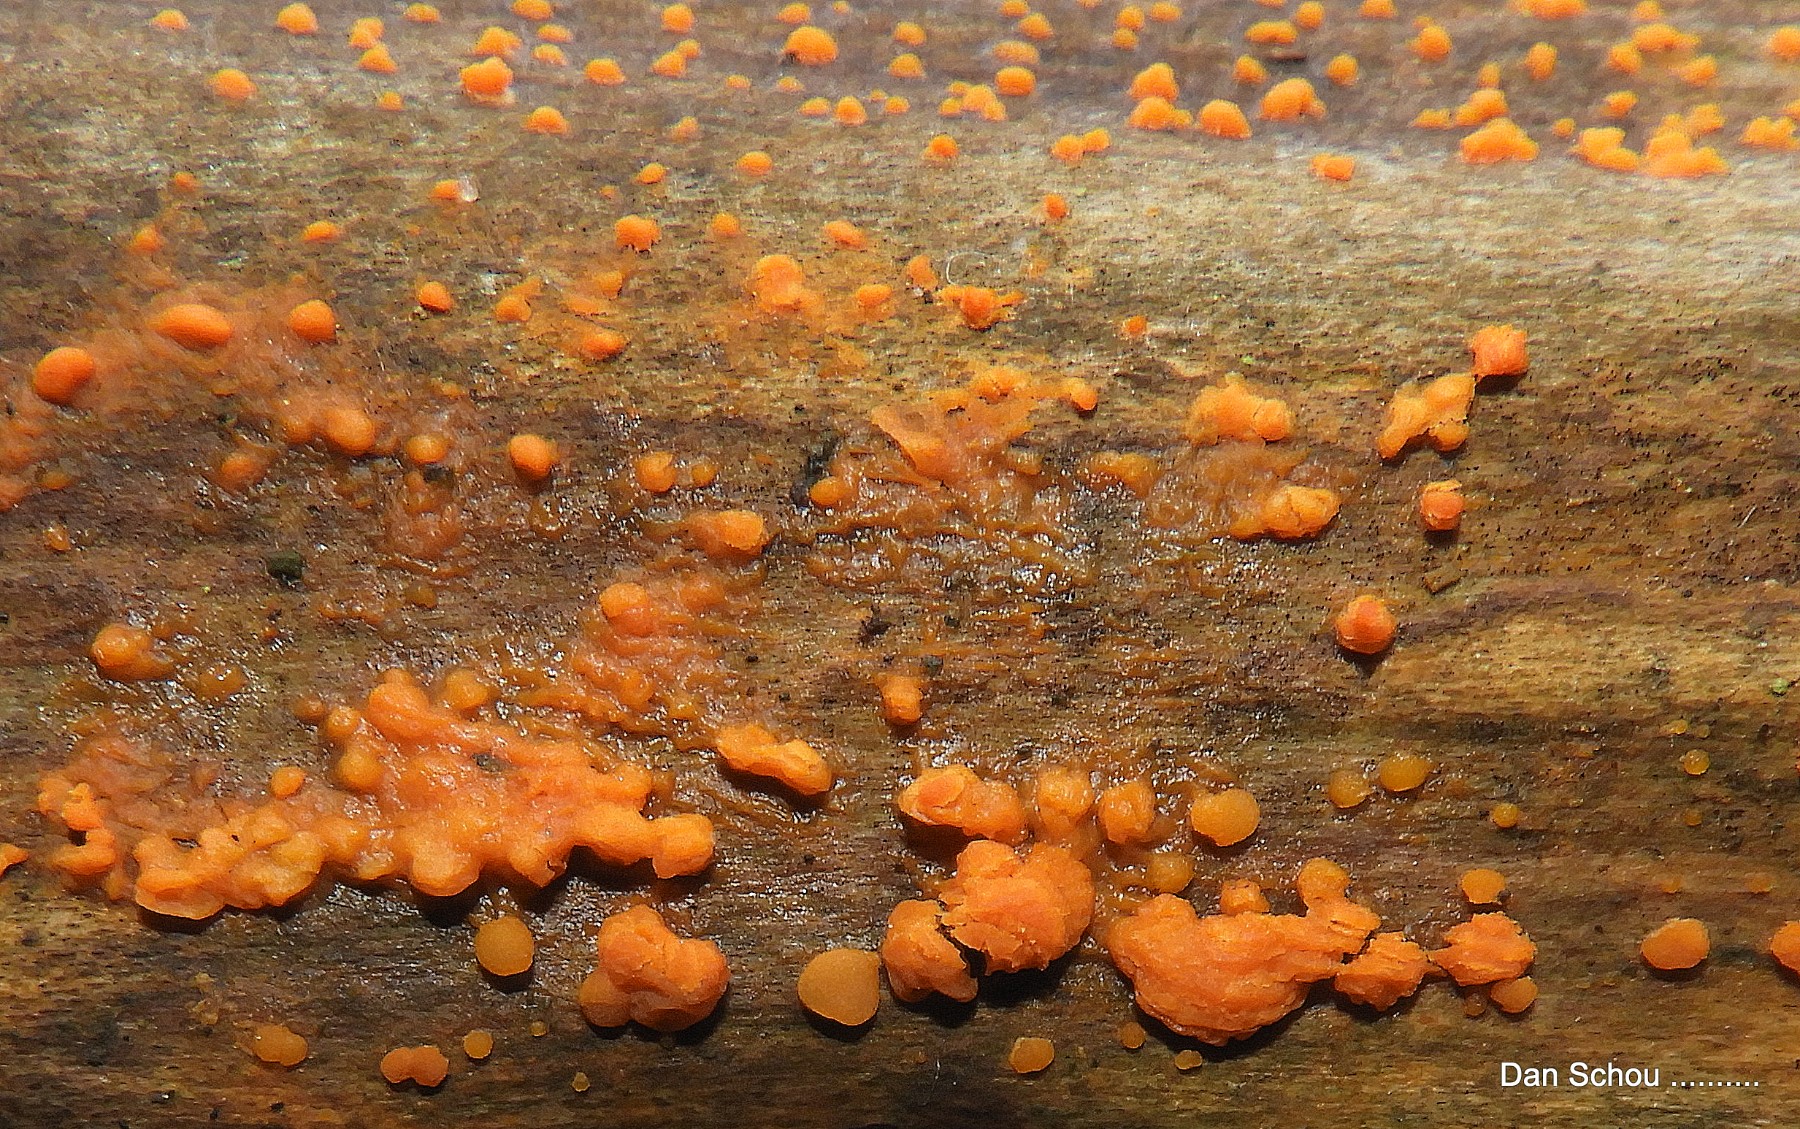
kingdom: Fungi
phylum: Basidiomycota
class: Dacrymycetes
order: Dacrymycetales
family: Dacrymycetaceae
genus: Dacrymyces
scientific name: Dacrymyces stillatus
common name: almindelig tåresvamp
